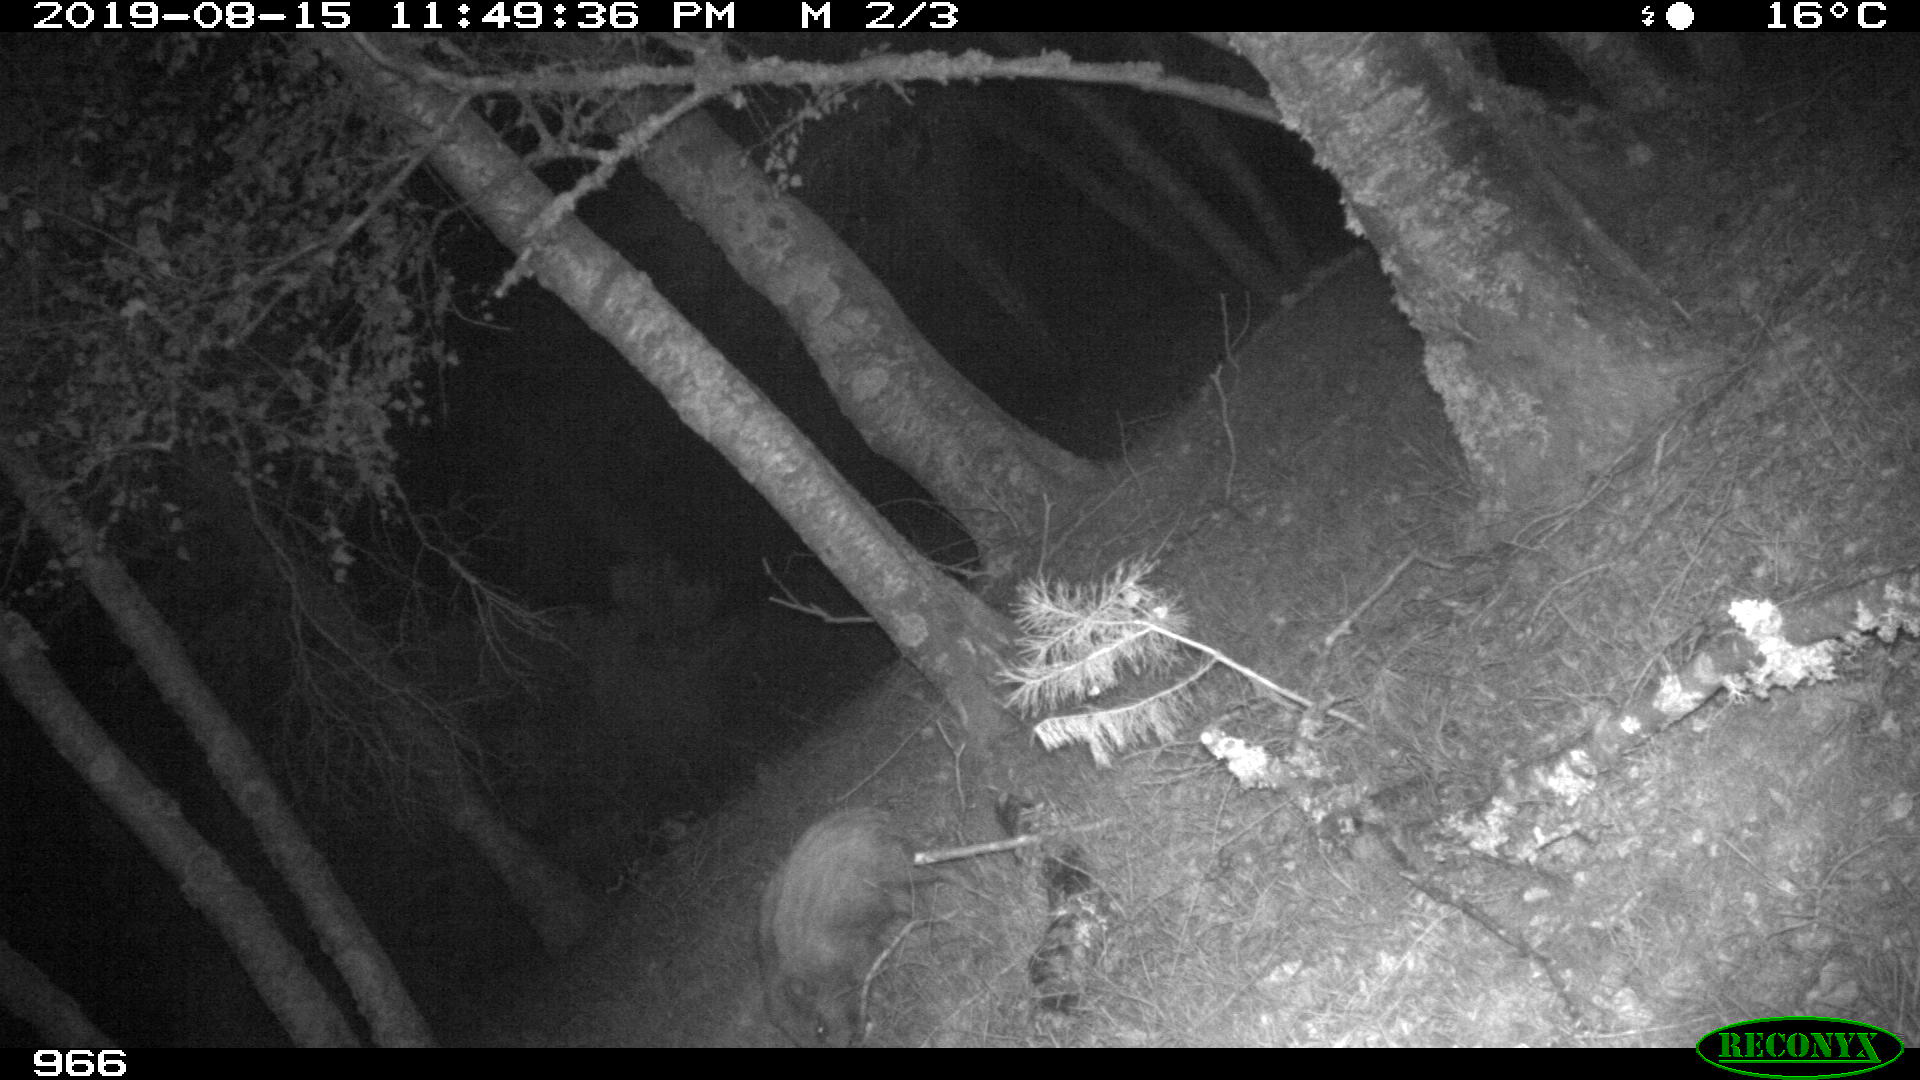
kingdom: Animalia
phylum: Chordata
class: Mammalia
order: Artiodactyla
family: Suidae
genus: Sus
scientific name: Sus scrofa
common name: Wild boar
